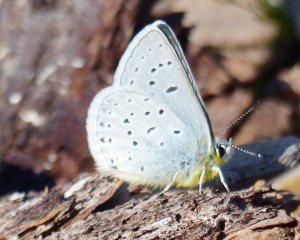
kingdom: Animalia
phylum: Arthropoda
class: Insecta
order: Lepidoptera
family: Lycaenidae
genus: Plebejus
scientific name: Plebejus saepiolus
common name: Greenish Blue
